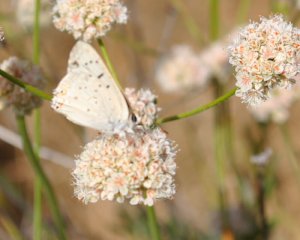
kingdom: Animalia
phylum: Arthropoda
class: Insecta
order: Lepidoptera
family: Lycaenidae
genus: Lycaena
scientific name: Lycaena xanthoides
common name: Great Copper
